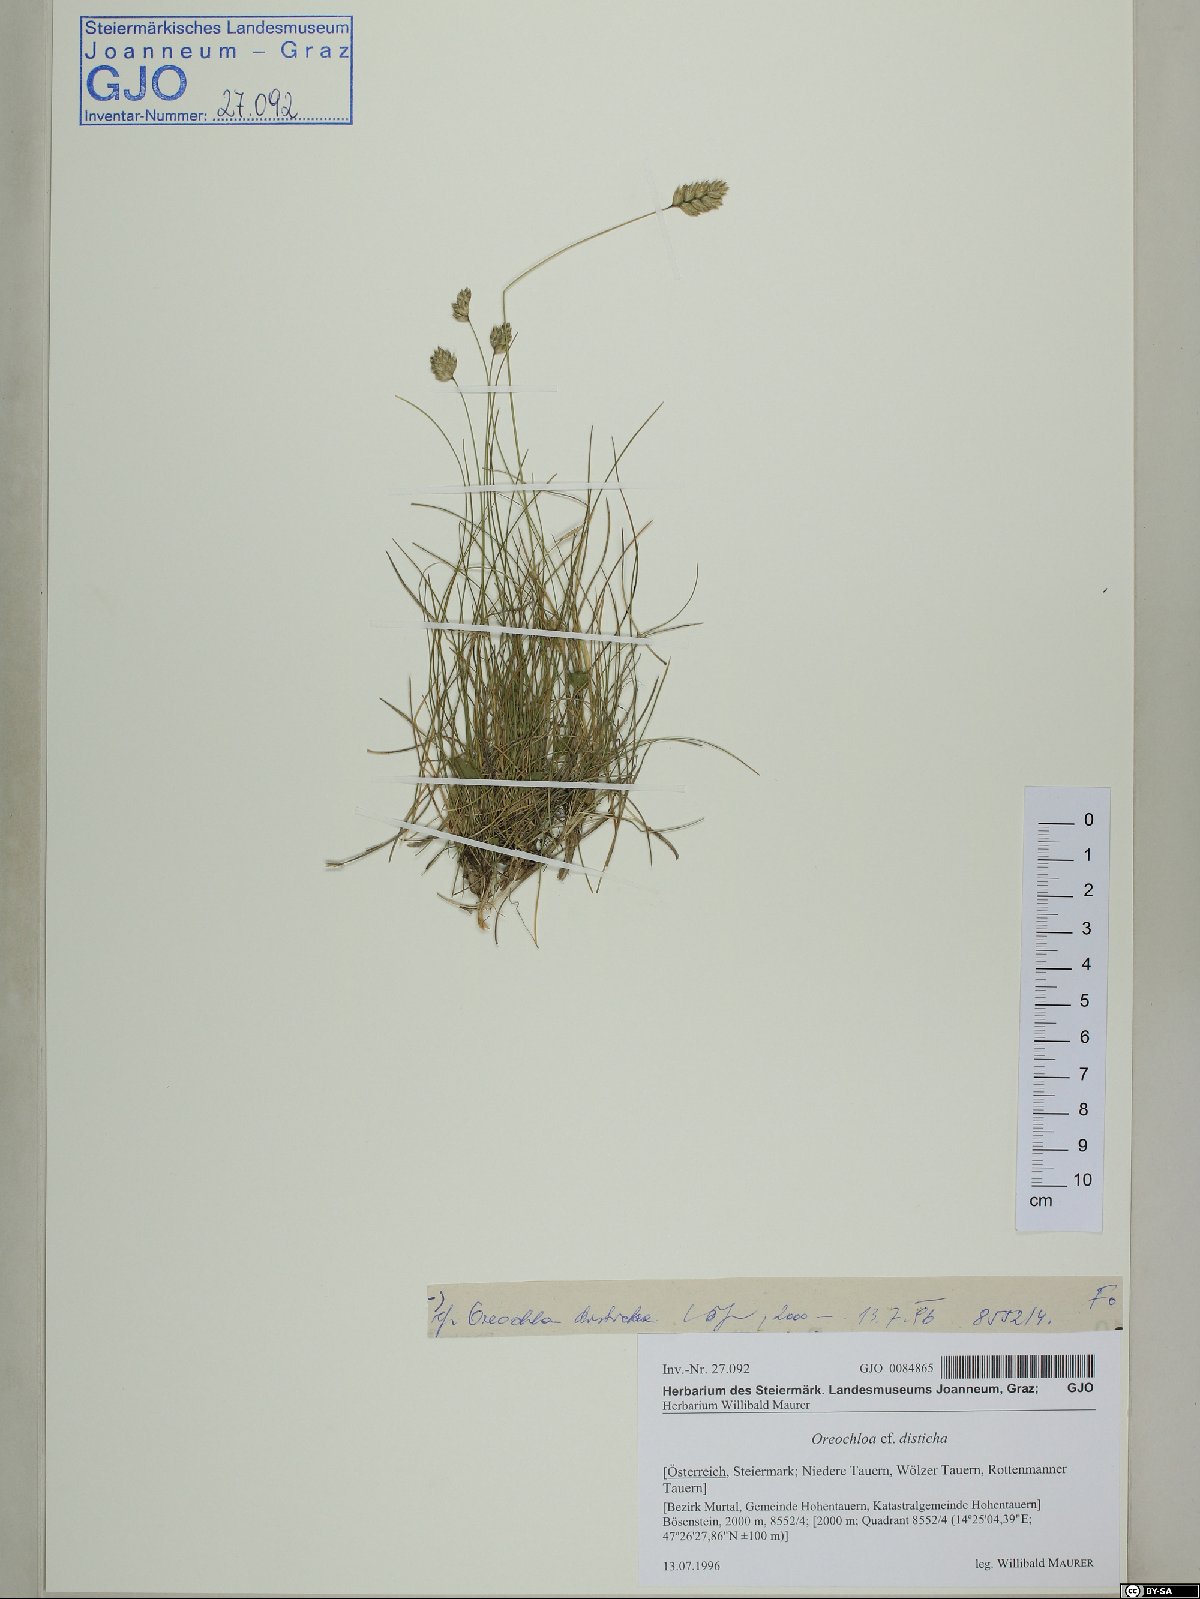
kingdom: Plantae
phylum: Tracheophyta
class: Liliopsida
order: Poales
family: Poaceae
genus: Oreochloa
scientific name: Oreochloa disticha
